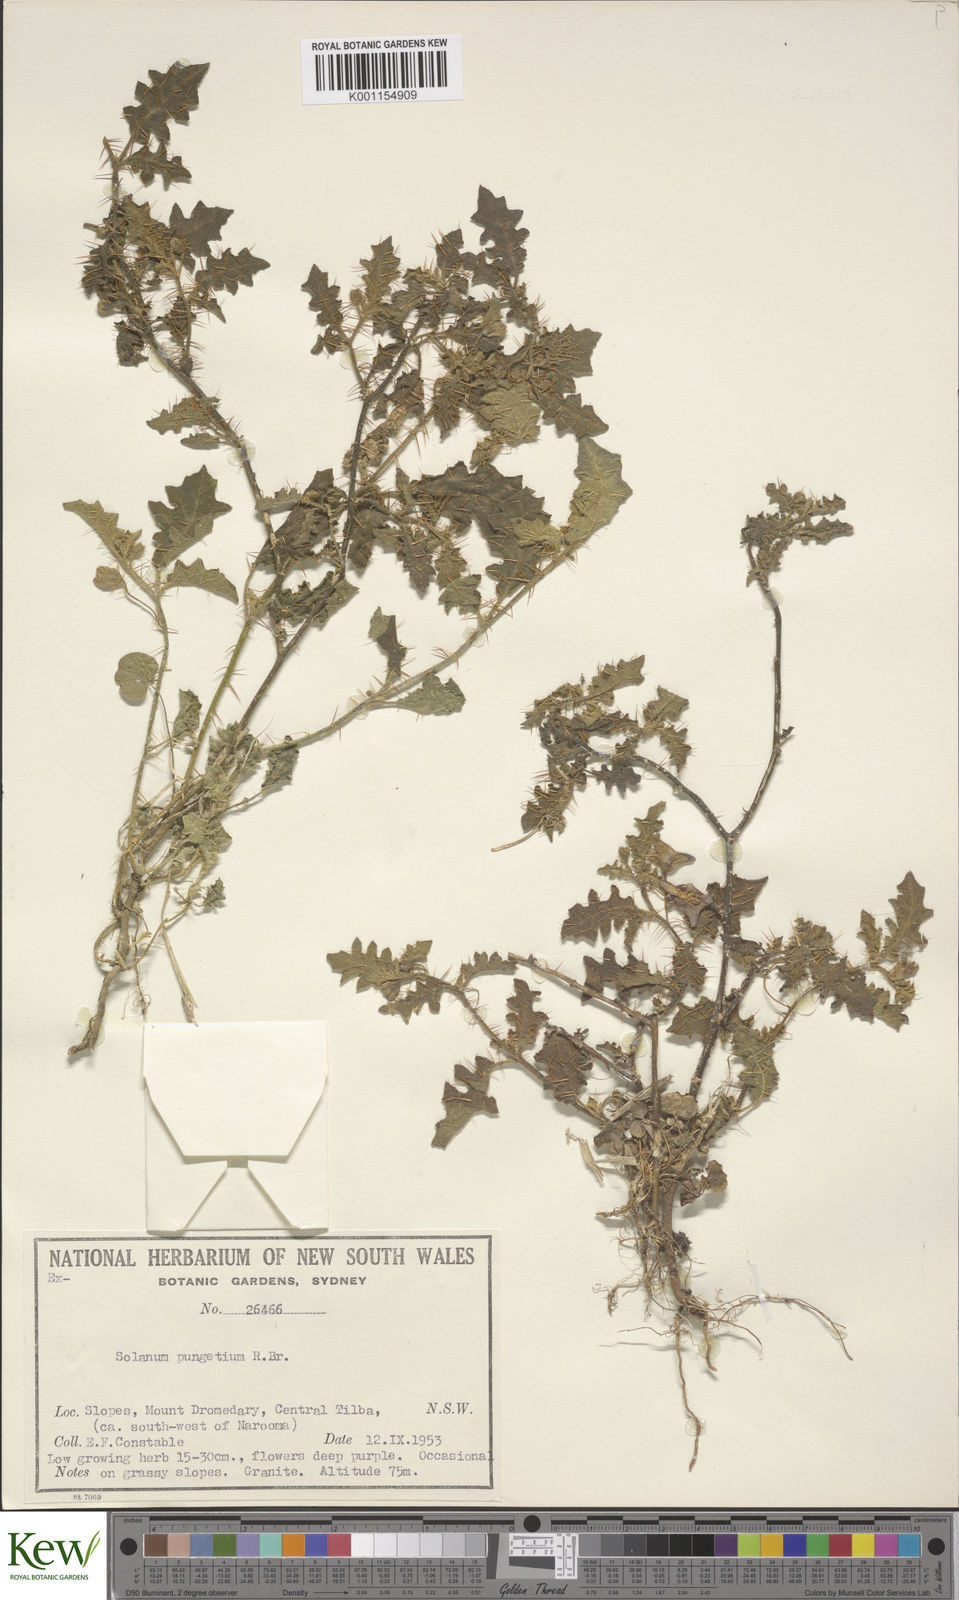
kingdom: Plantae
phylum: Tracheophyta
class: Magnoliopsida
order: Solanales
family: Solanaceae
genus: Solanum
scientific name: Solanum pungetium
